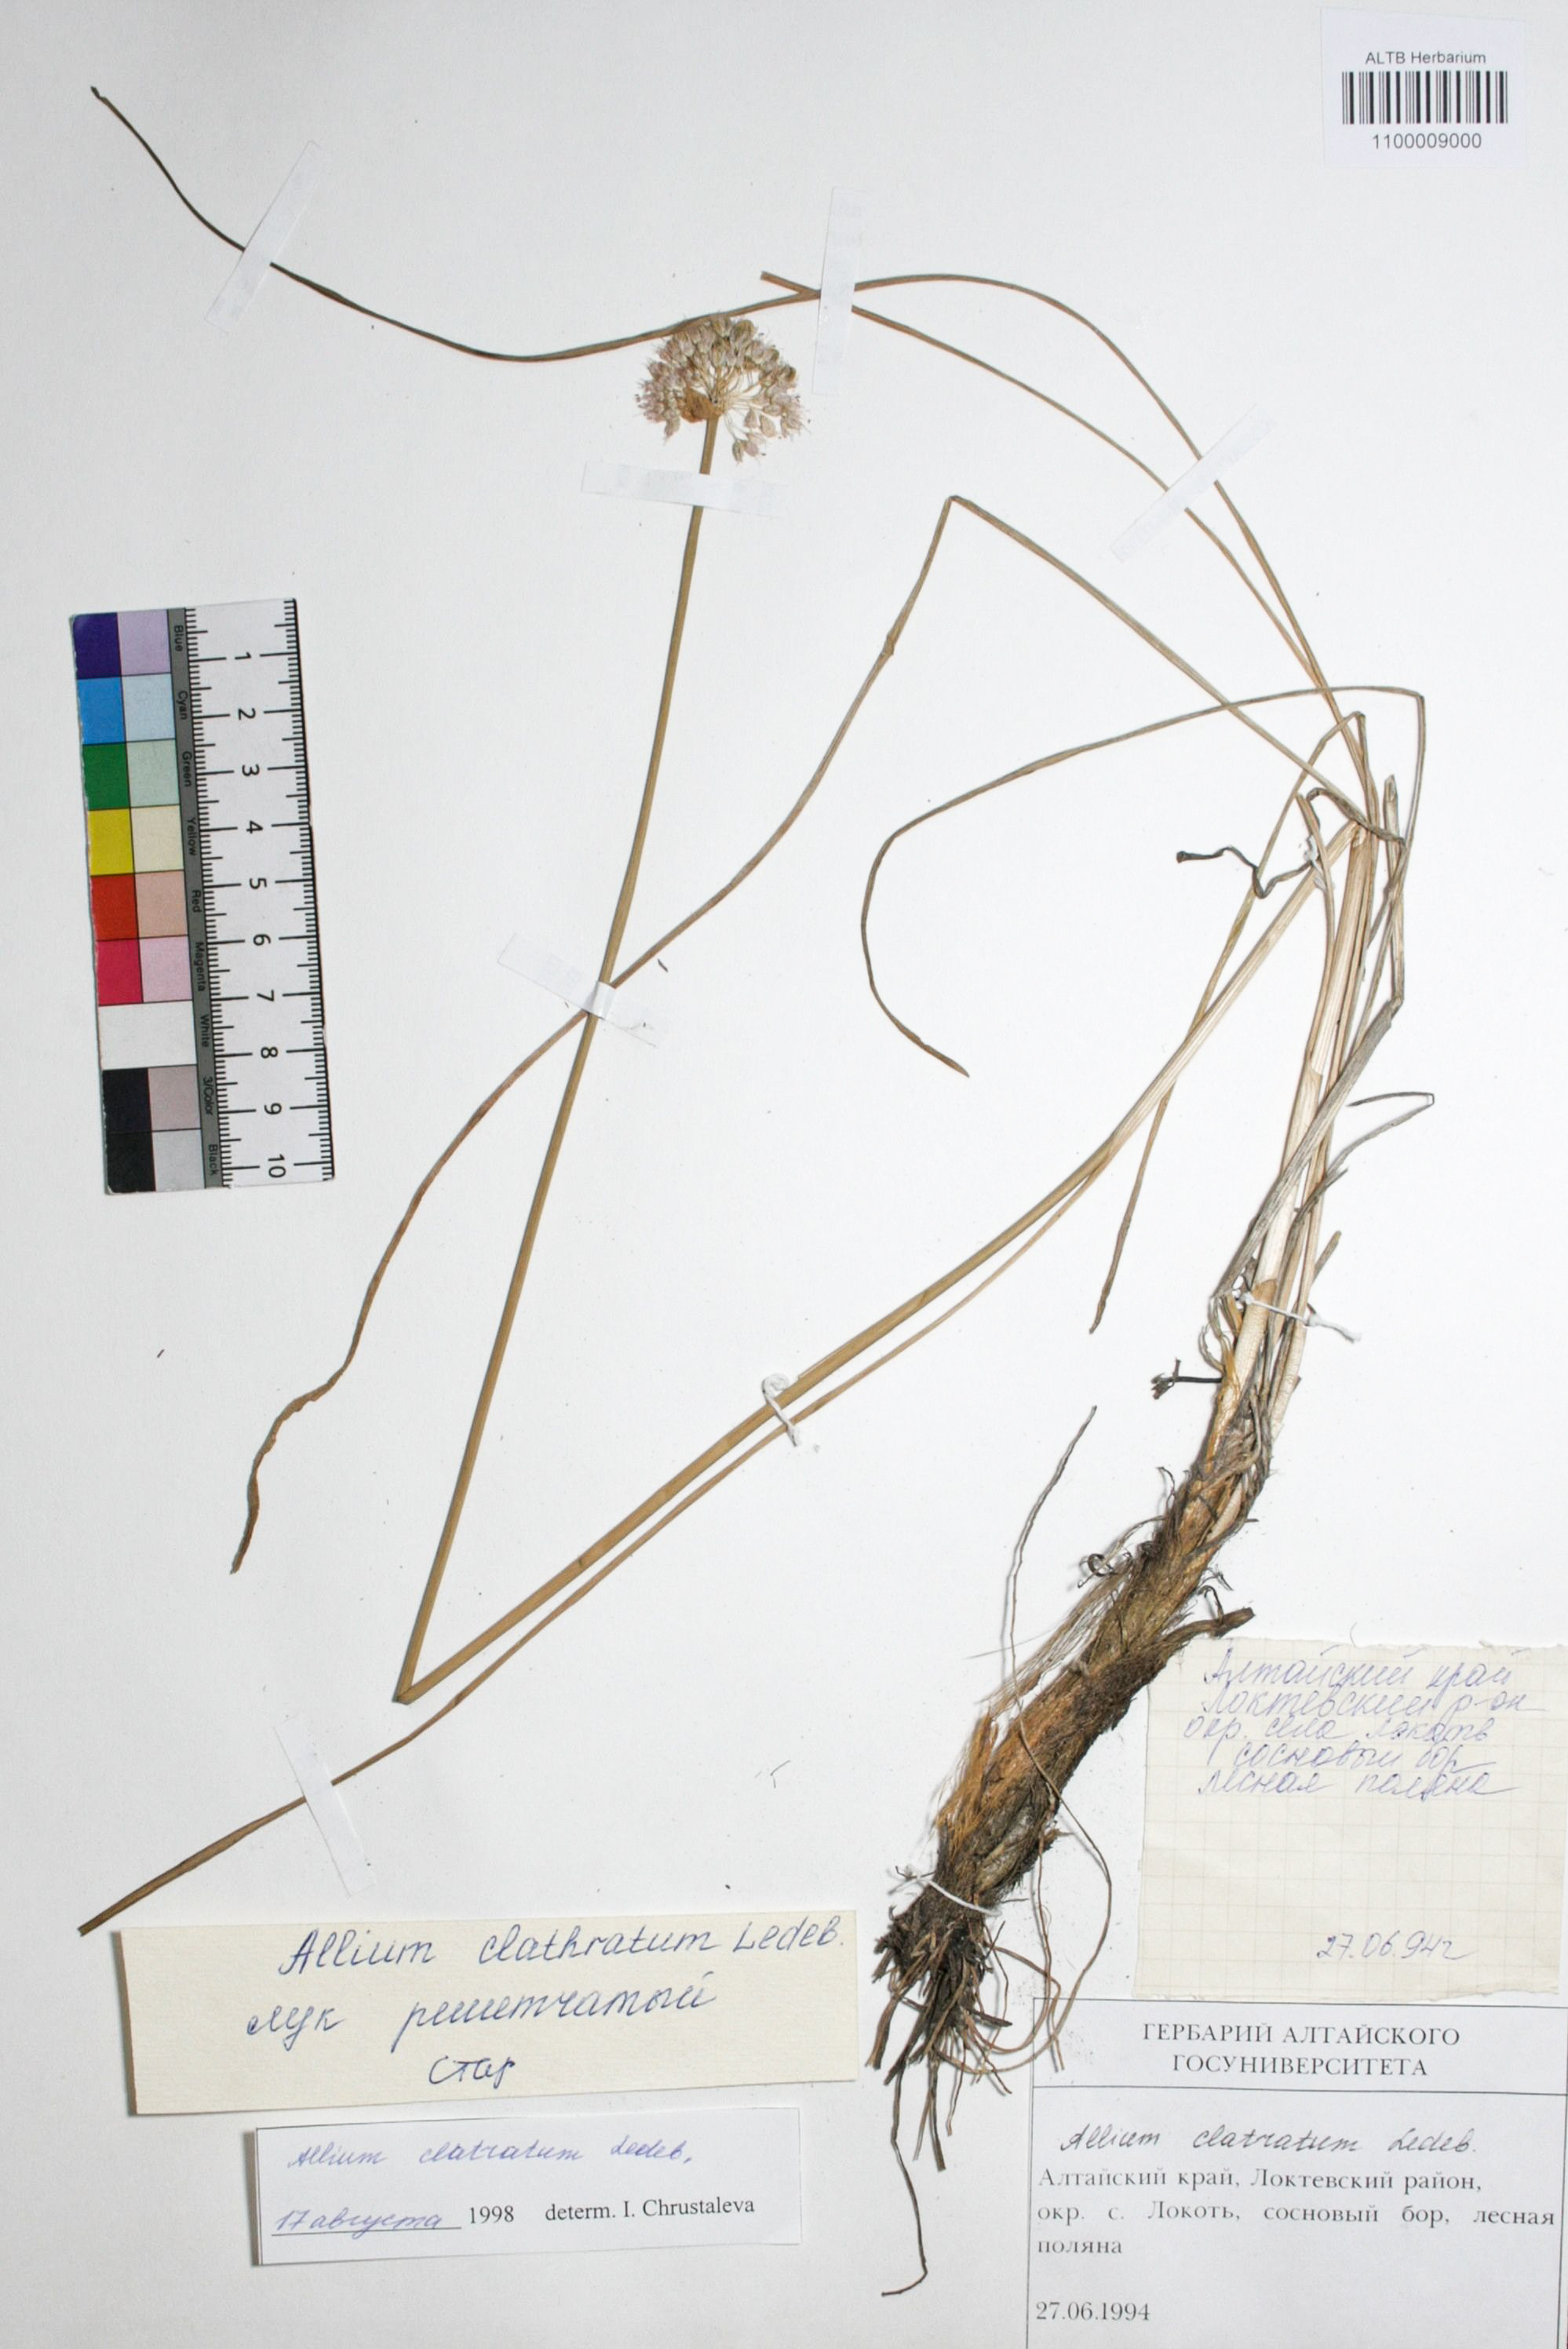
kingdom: Plantae
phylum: Tracheophyta
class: Liliopsida
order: Asparagales
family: Amaryllidaceae
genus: Allium
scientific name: Allium clathratum
